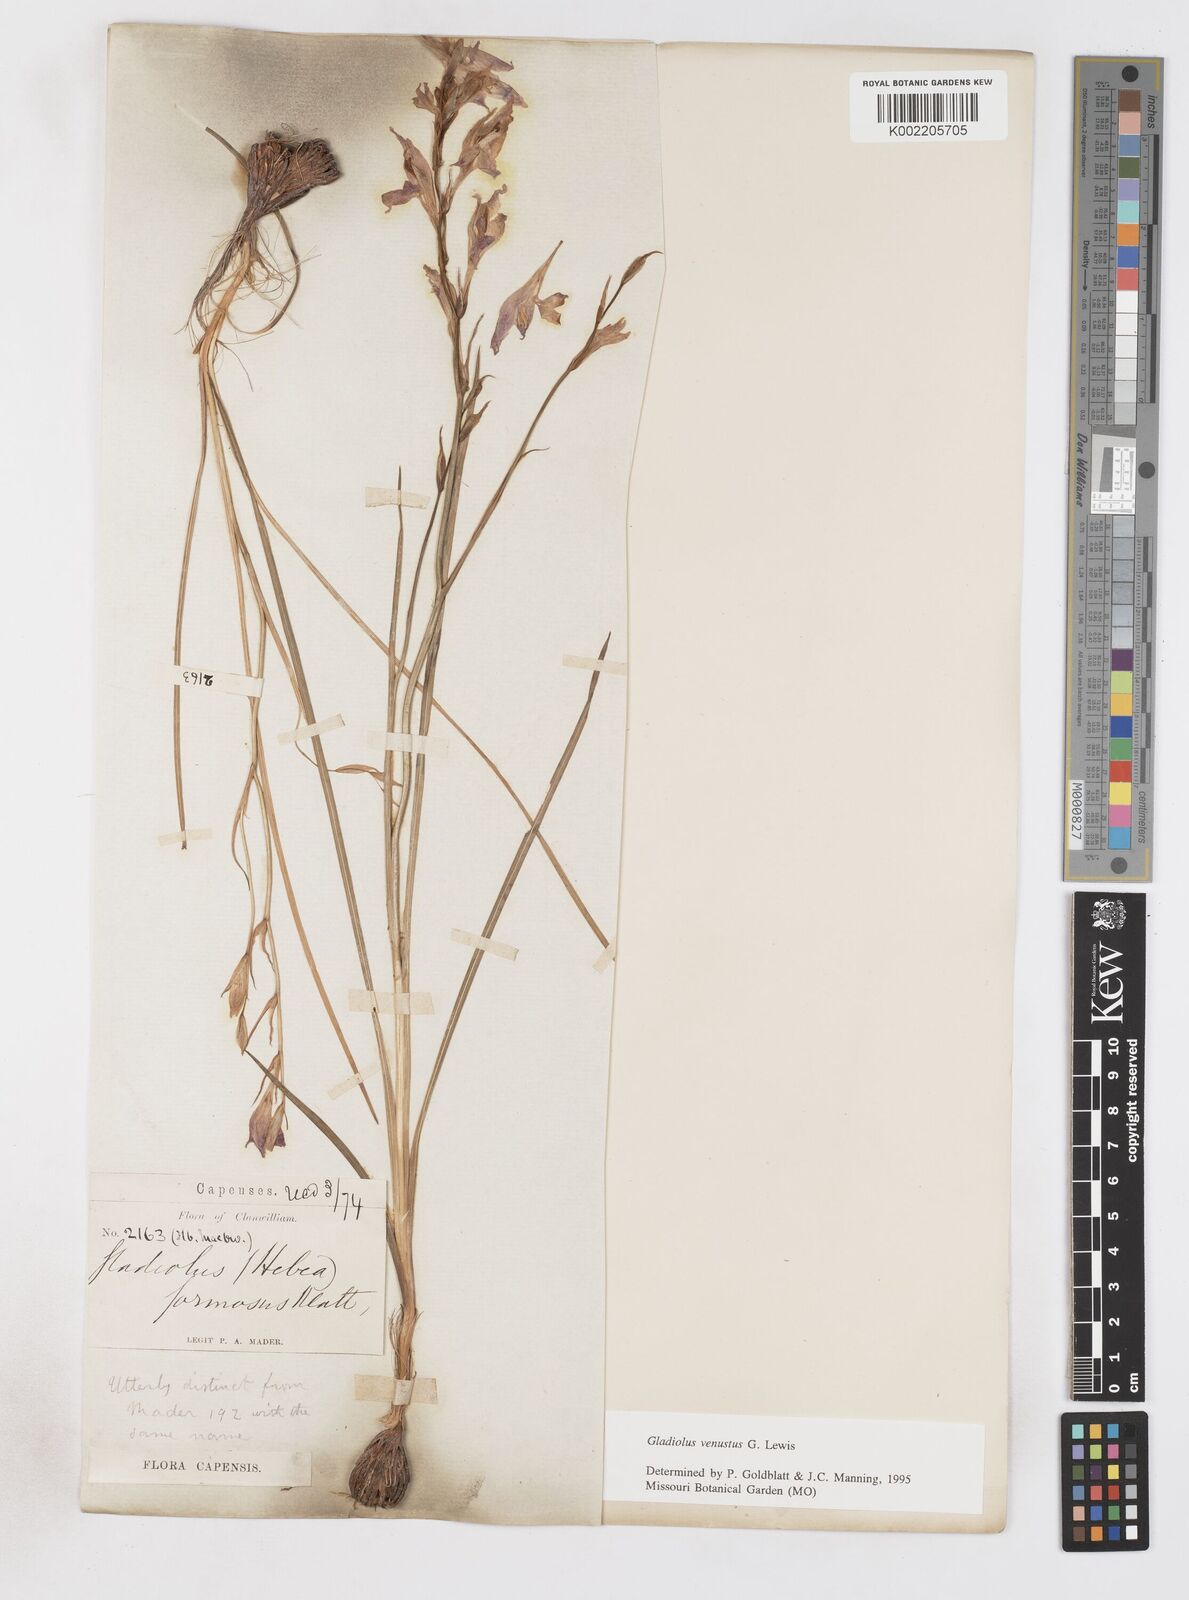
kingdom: Plantae
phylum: Tracheophyta
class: Liliopsida
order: Asparagales
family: Iridaceae
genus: Gladiolus
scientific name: Gladiolus densiflorus
